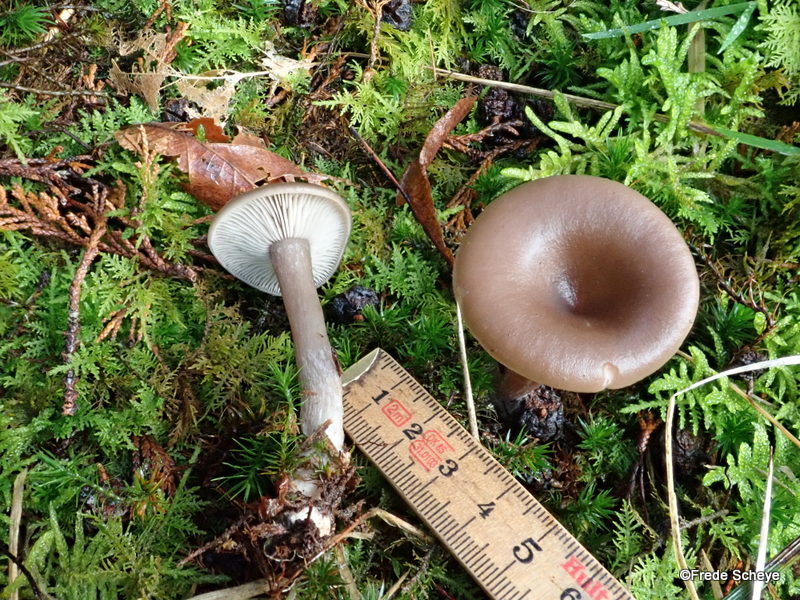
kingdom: Fungi
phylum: Basidiomycota
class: Agaricomycetes
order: Agaricales
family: Pseudoclitocybaceae
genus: Pseudoclitocybe
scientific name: Pseudoclitocybe cyathiformis
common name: almindelig bægertragthat
